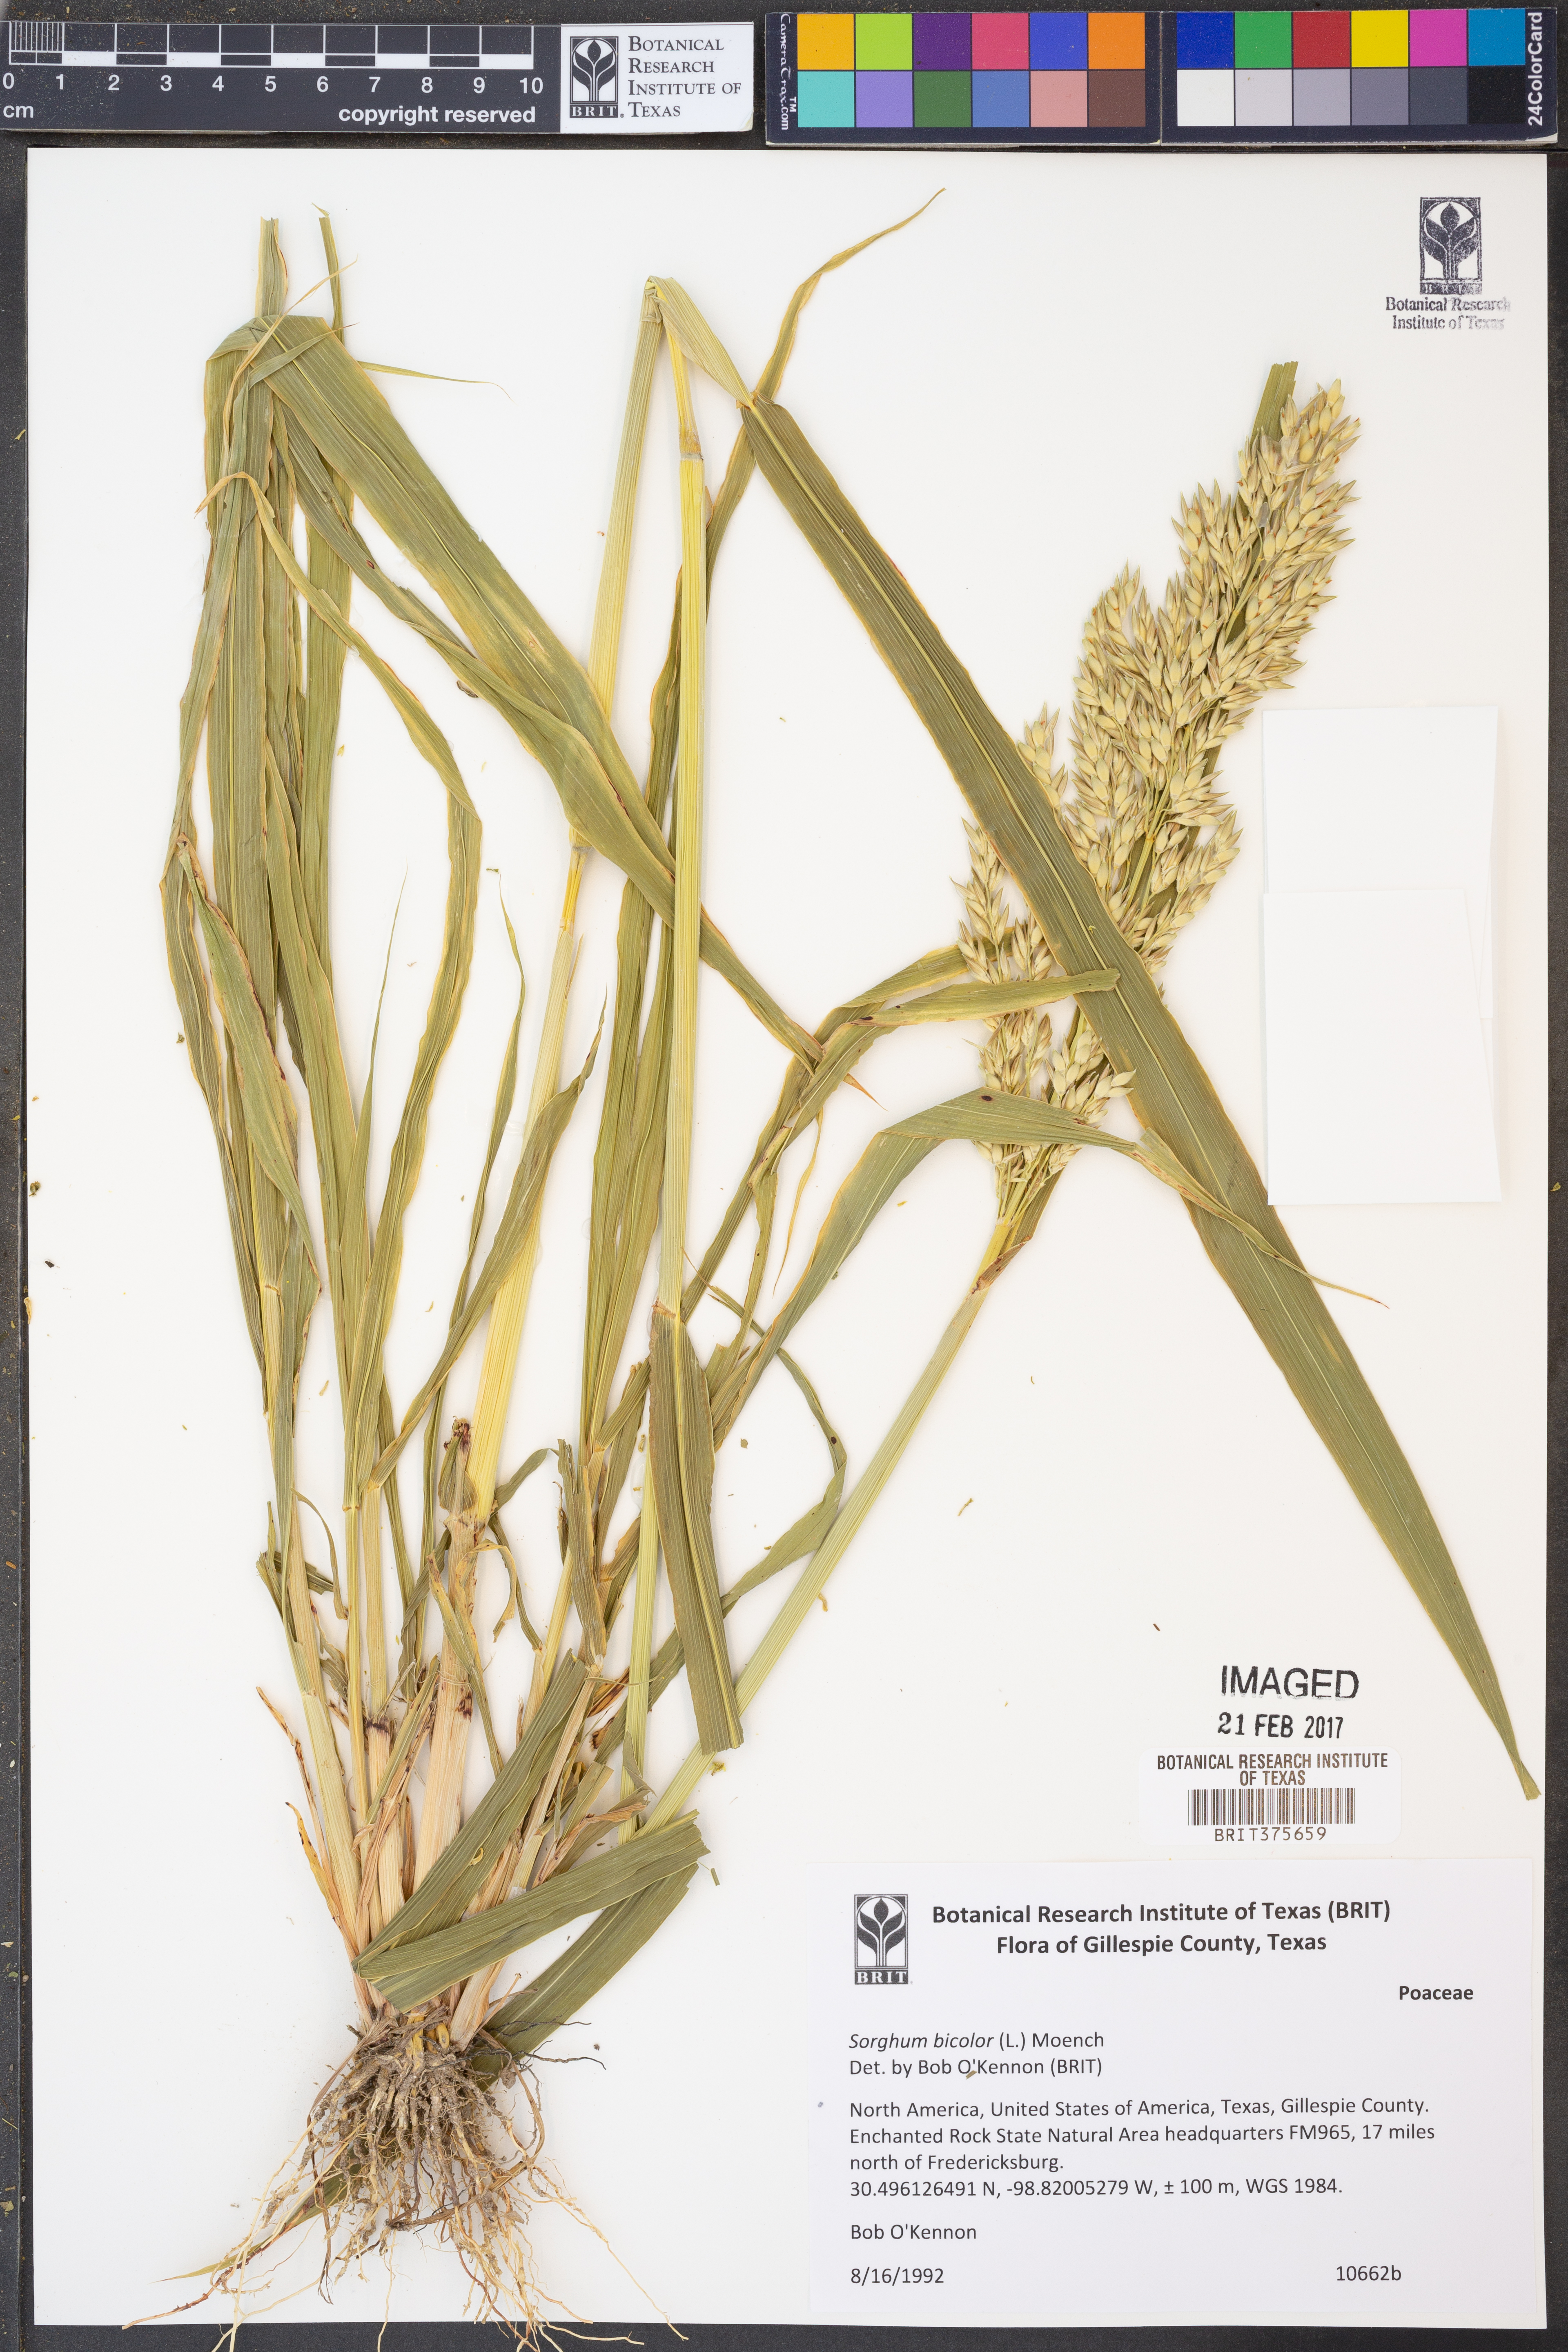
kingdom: Plantae
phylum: Tracheophyta
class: Liliopsida
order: Poales
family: Poaceae
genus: Sorghum
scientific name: Sorghum bicolor
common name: Sorghum
